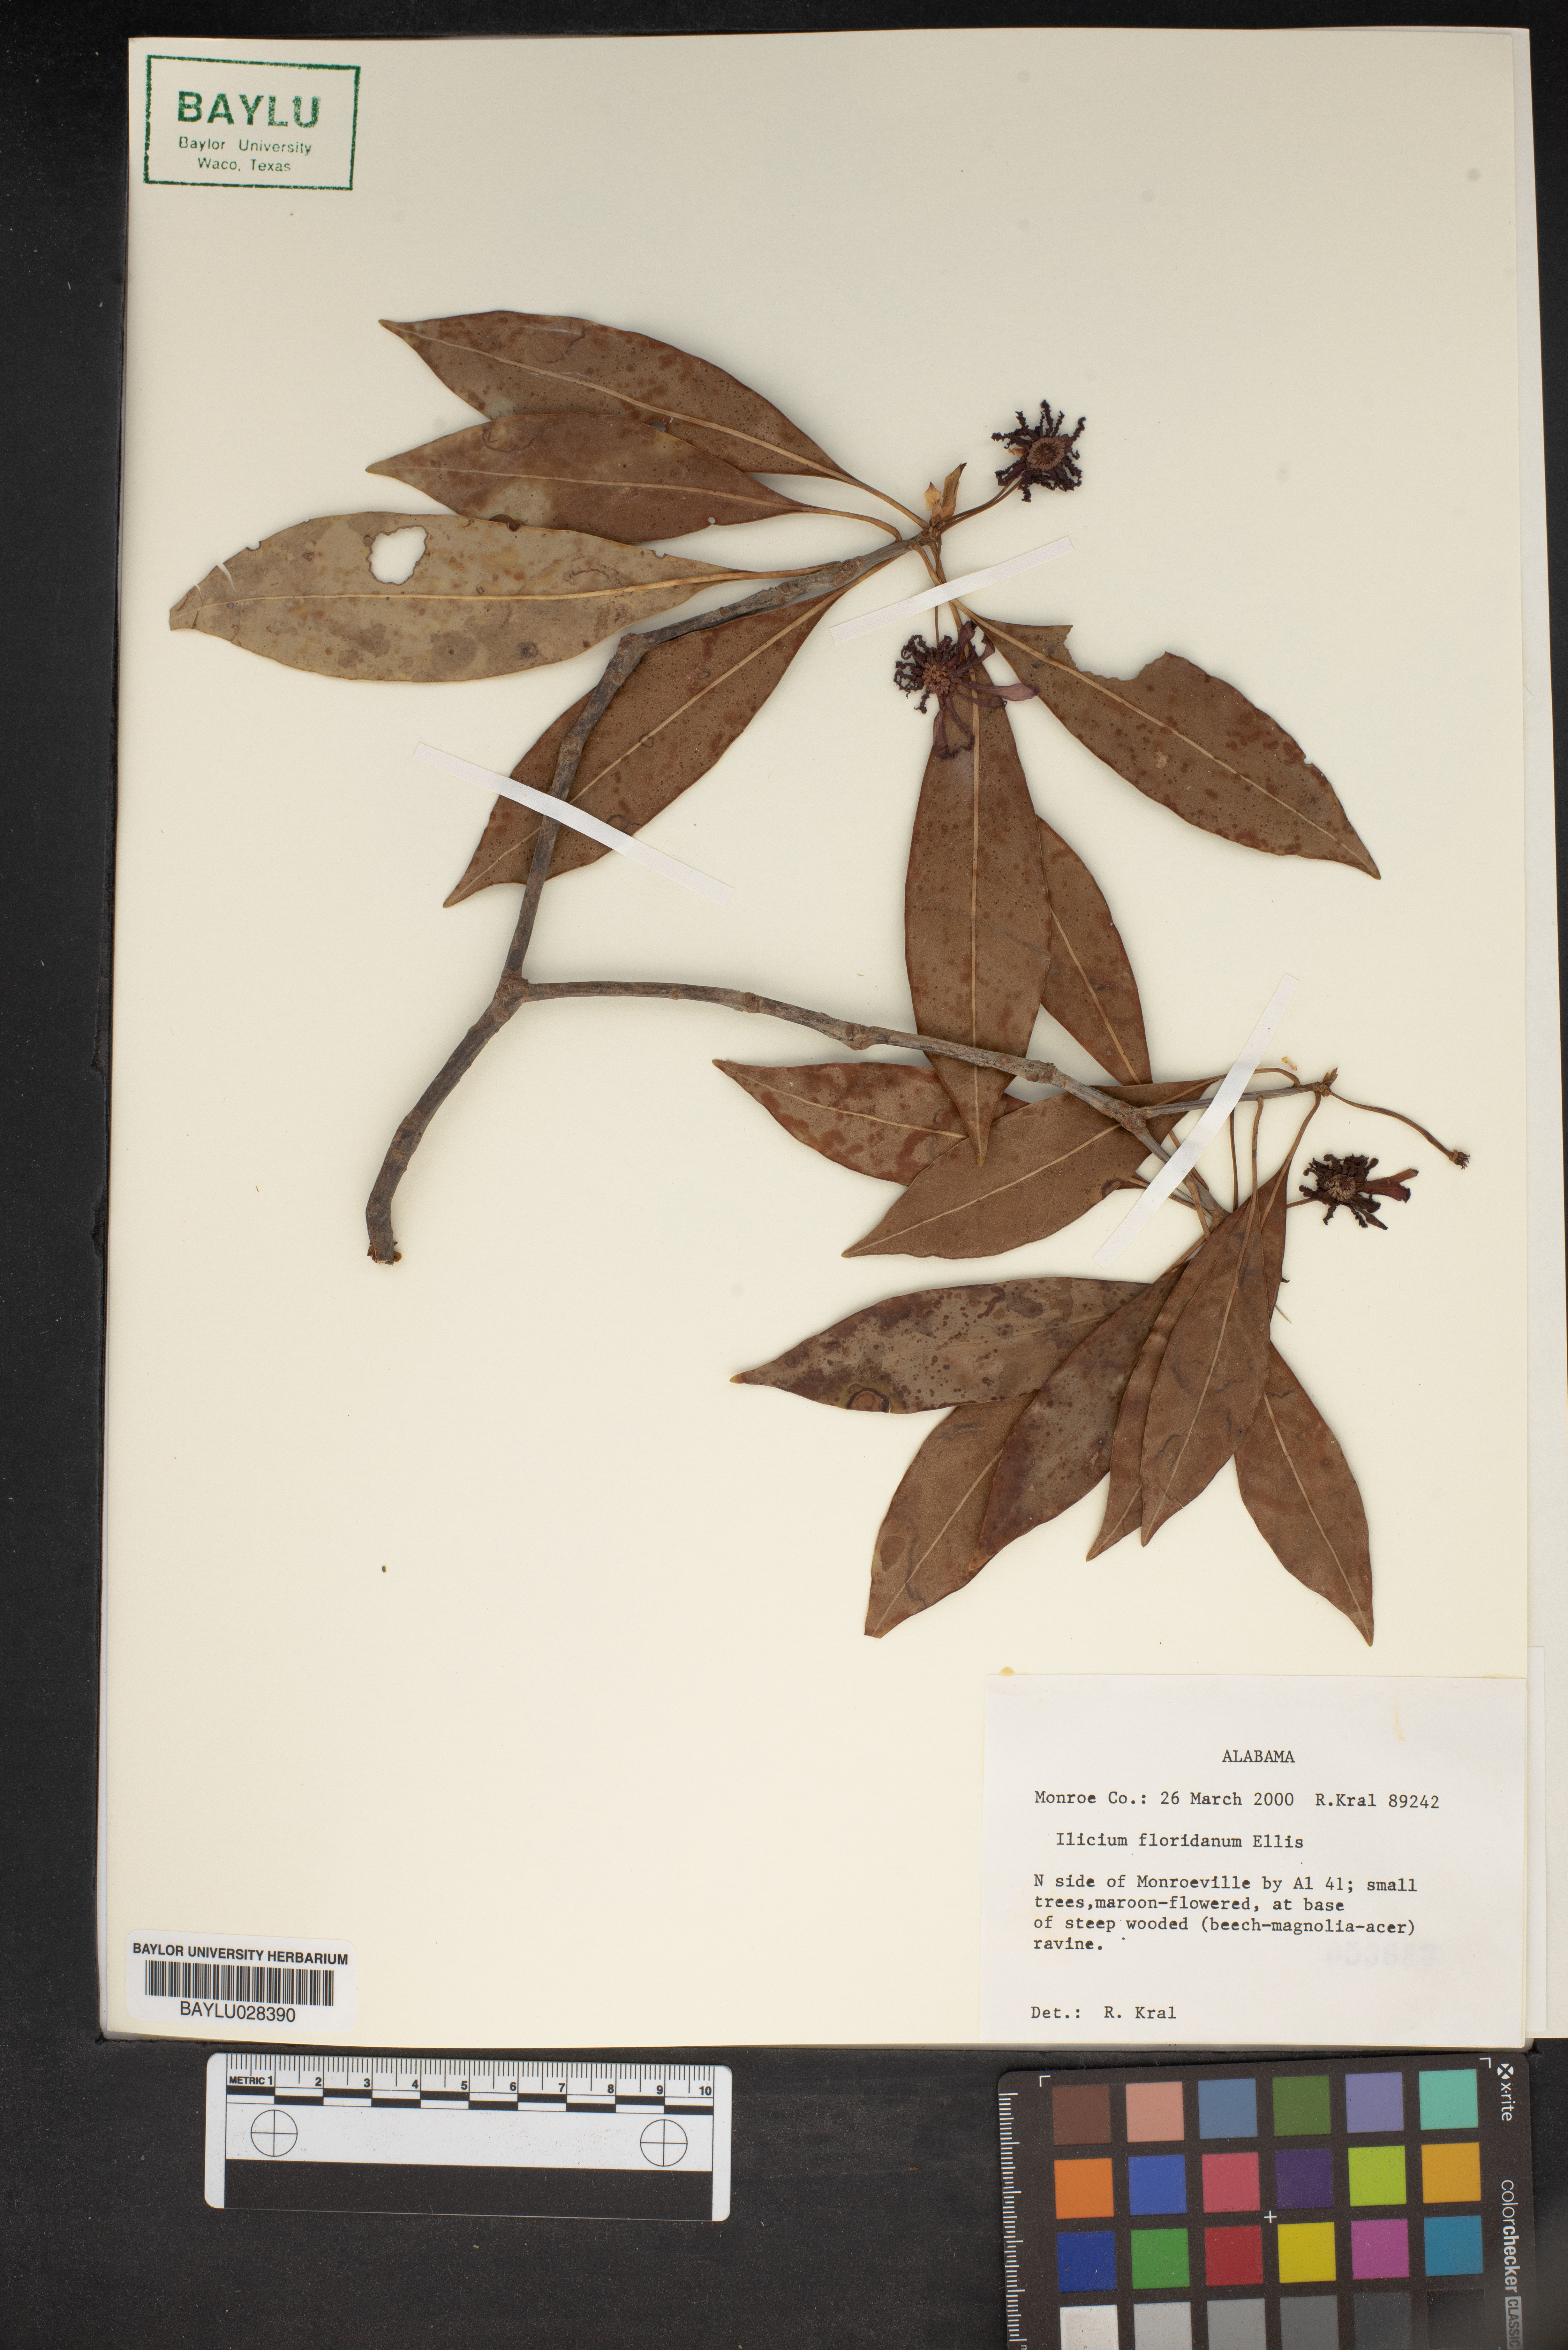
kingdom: Plantae
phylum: Tracheophyta
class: Magnoliopsida
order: Austrobaileyales
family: Schisandraceae
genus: Illicium
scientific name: Illicium floridanum
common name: Florida anisetree
